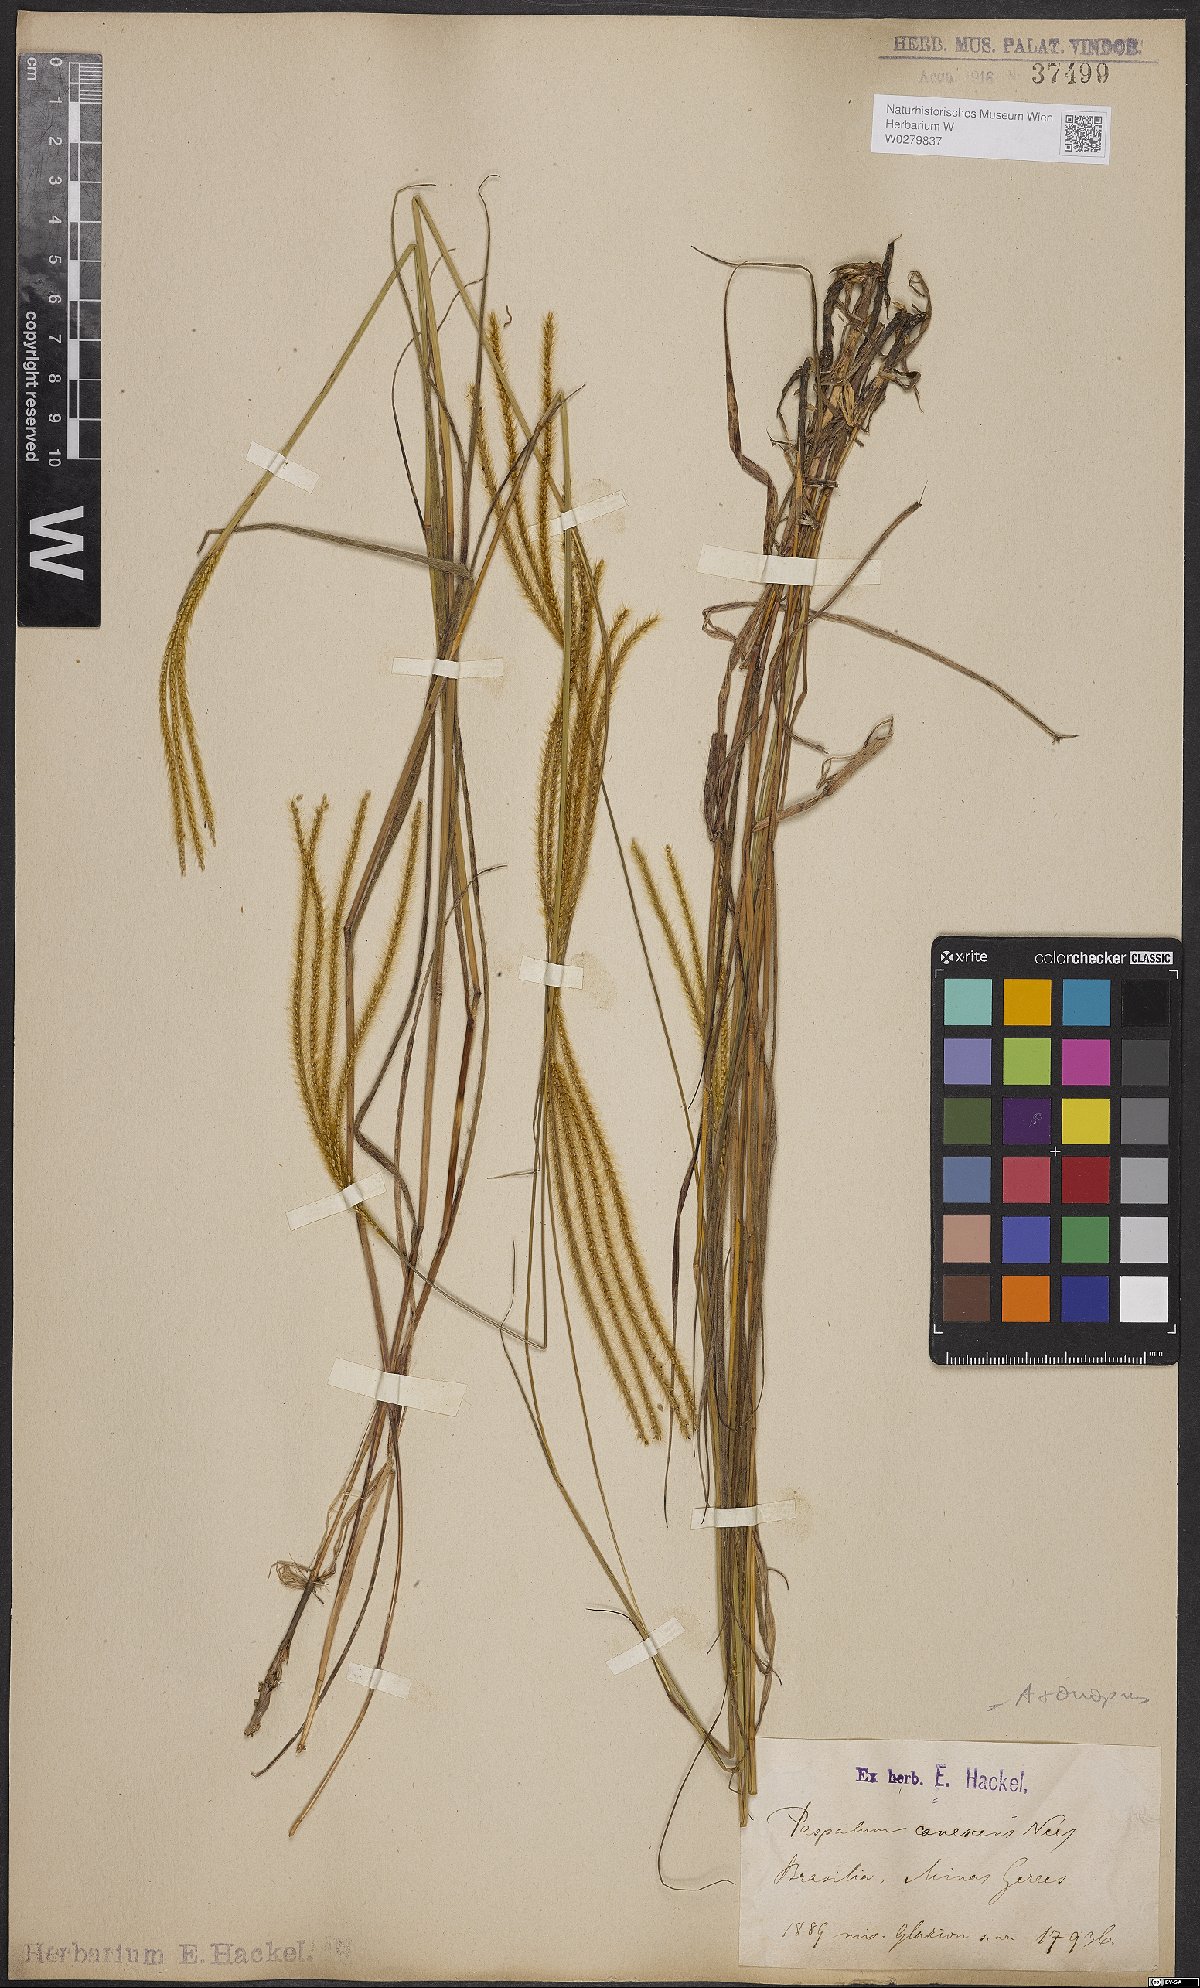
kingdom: Plantae
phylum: Tracheophyta
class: Liliopsida
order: Poales
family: Poaceae
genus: Axonopus
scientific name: Axonopus aureus
